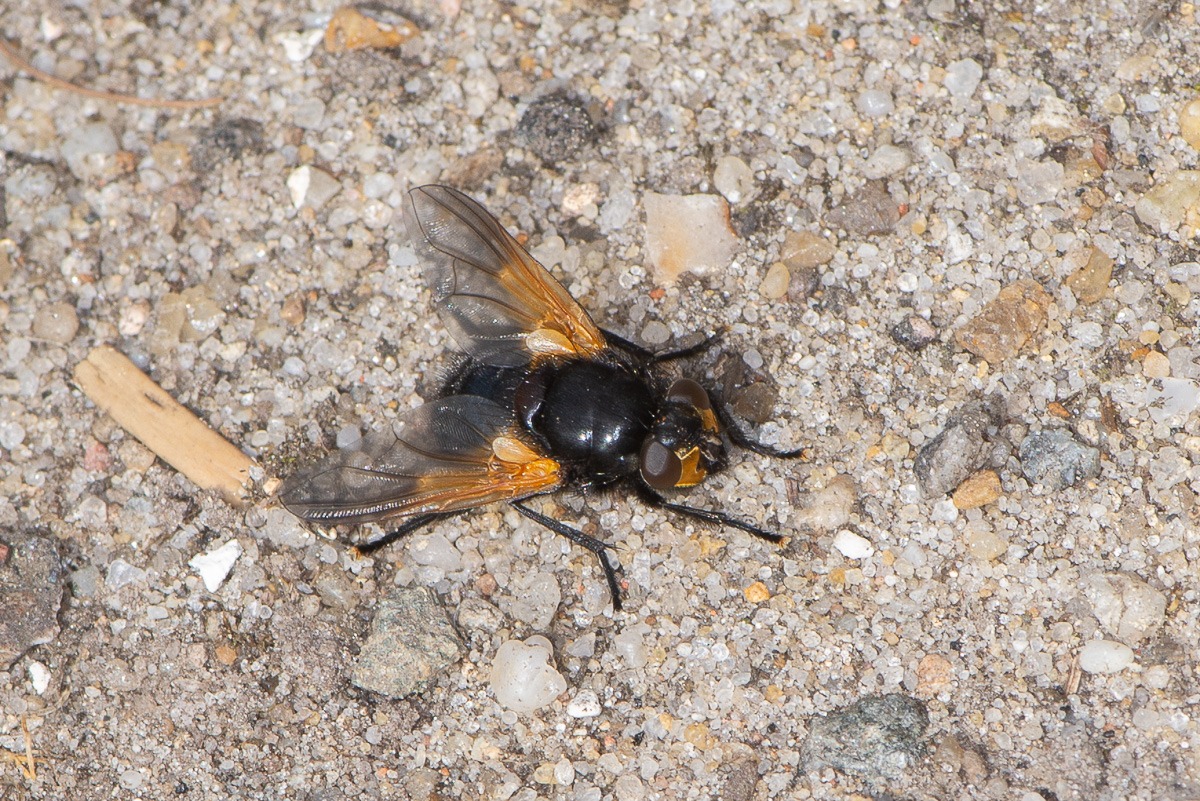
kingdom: Animalia
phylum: Arthropoda
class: Insecta
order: Diptera
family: Muscidae
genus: Mesembrina
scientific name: Mesembrina meridiana
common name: Gulvinget flue
